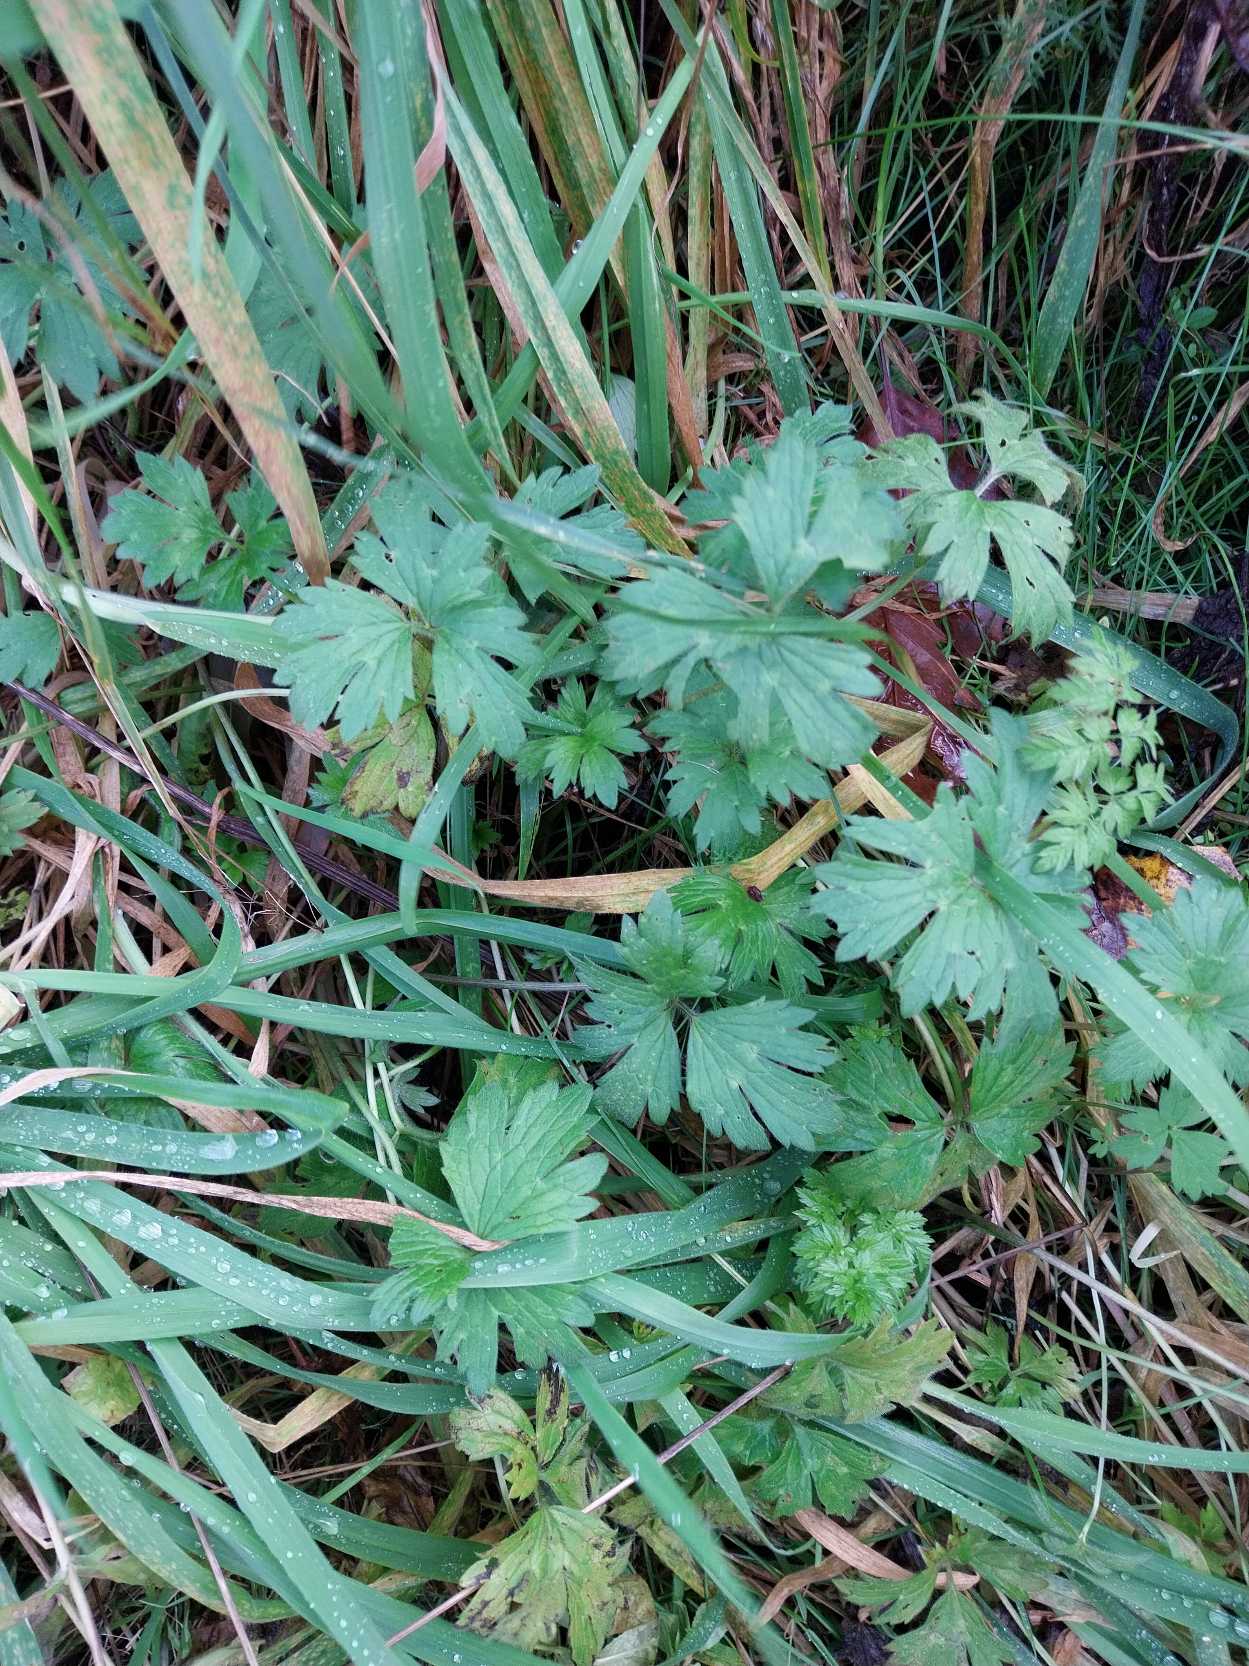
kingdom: Plantae
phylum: Tracheophyta
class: Magnoliopsida
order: Ranunculales
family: Ranunculaceae
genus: Ranunculus
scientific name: Ranunculus repens
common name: Lav ranunkel
